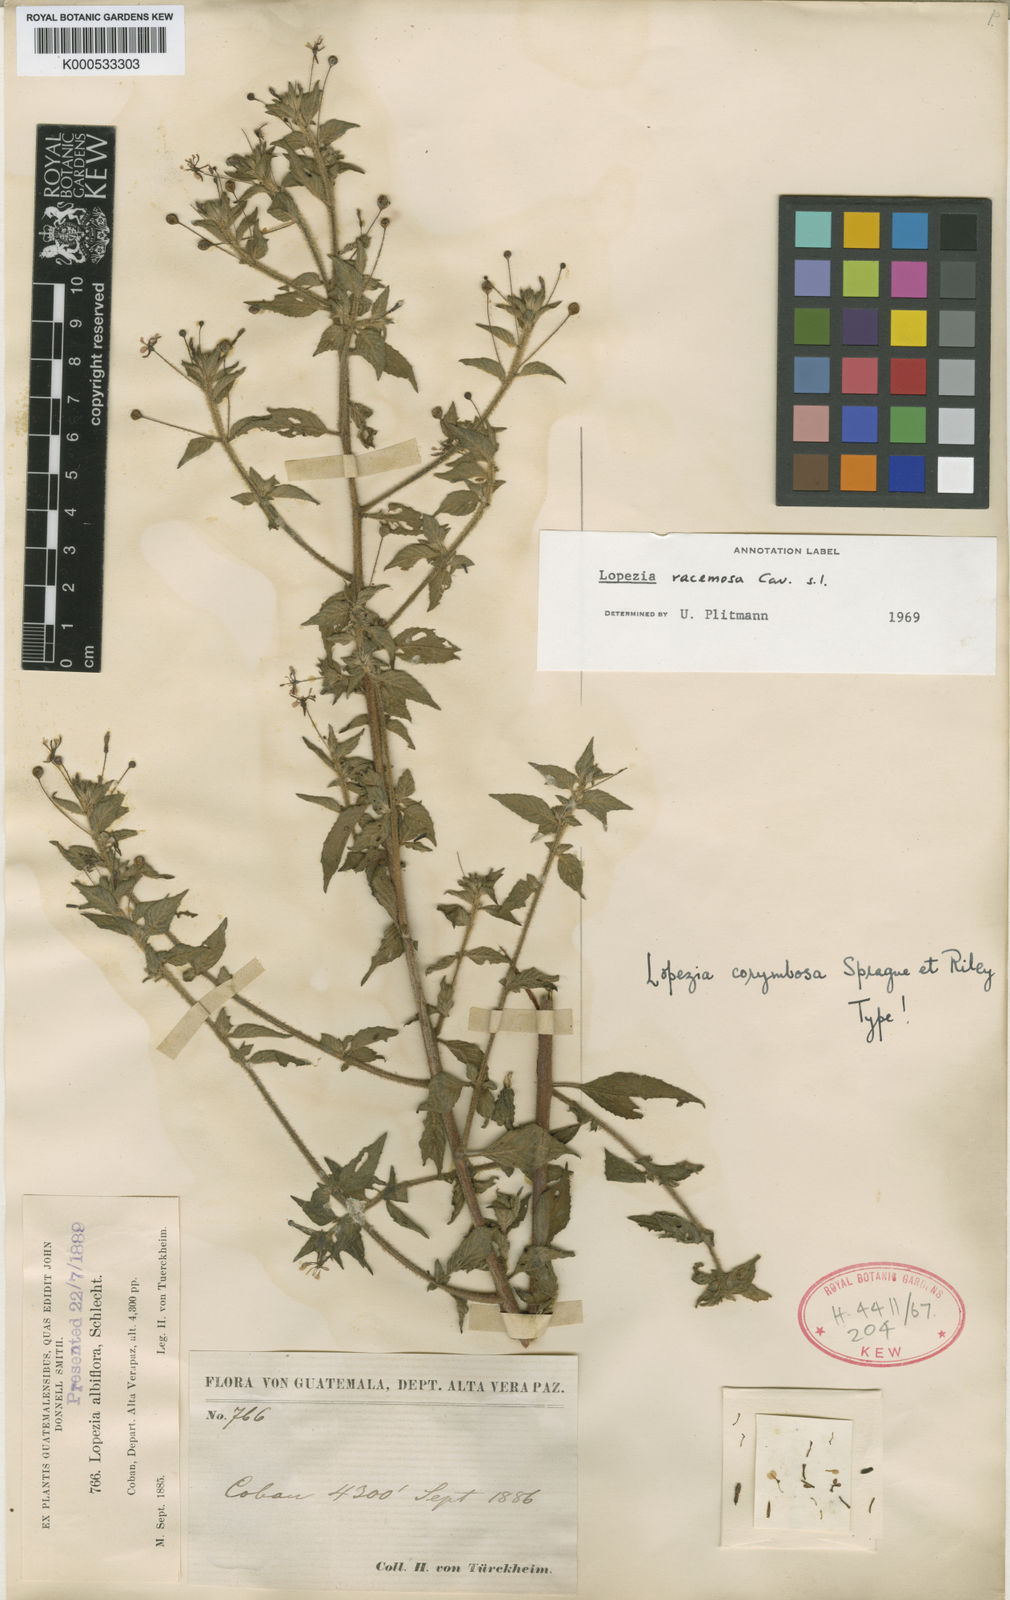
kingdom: Plantae
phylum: Tracheophyta
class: Magnoliopsida
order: Myrtales
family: Onagraceae
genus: Lopezia
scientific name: Lopezia racemosa
